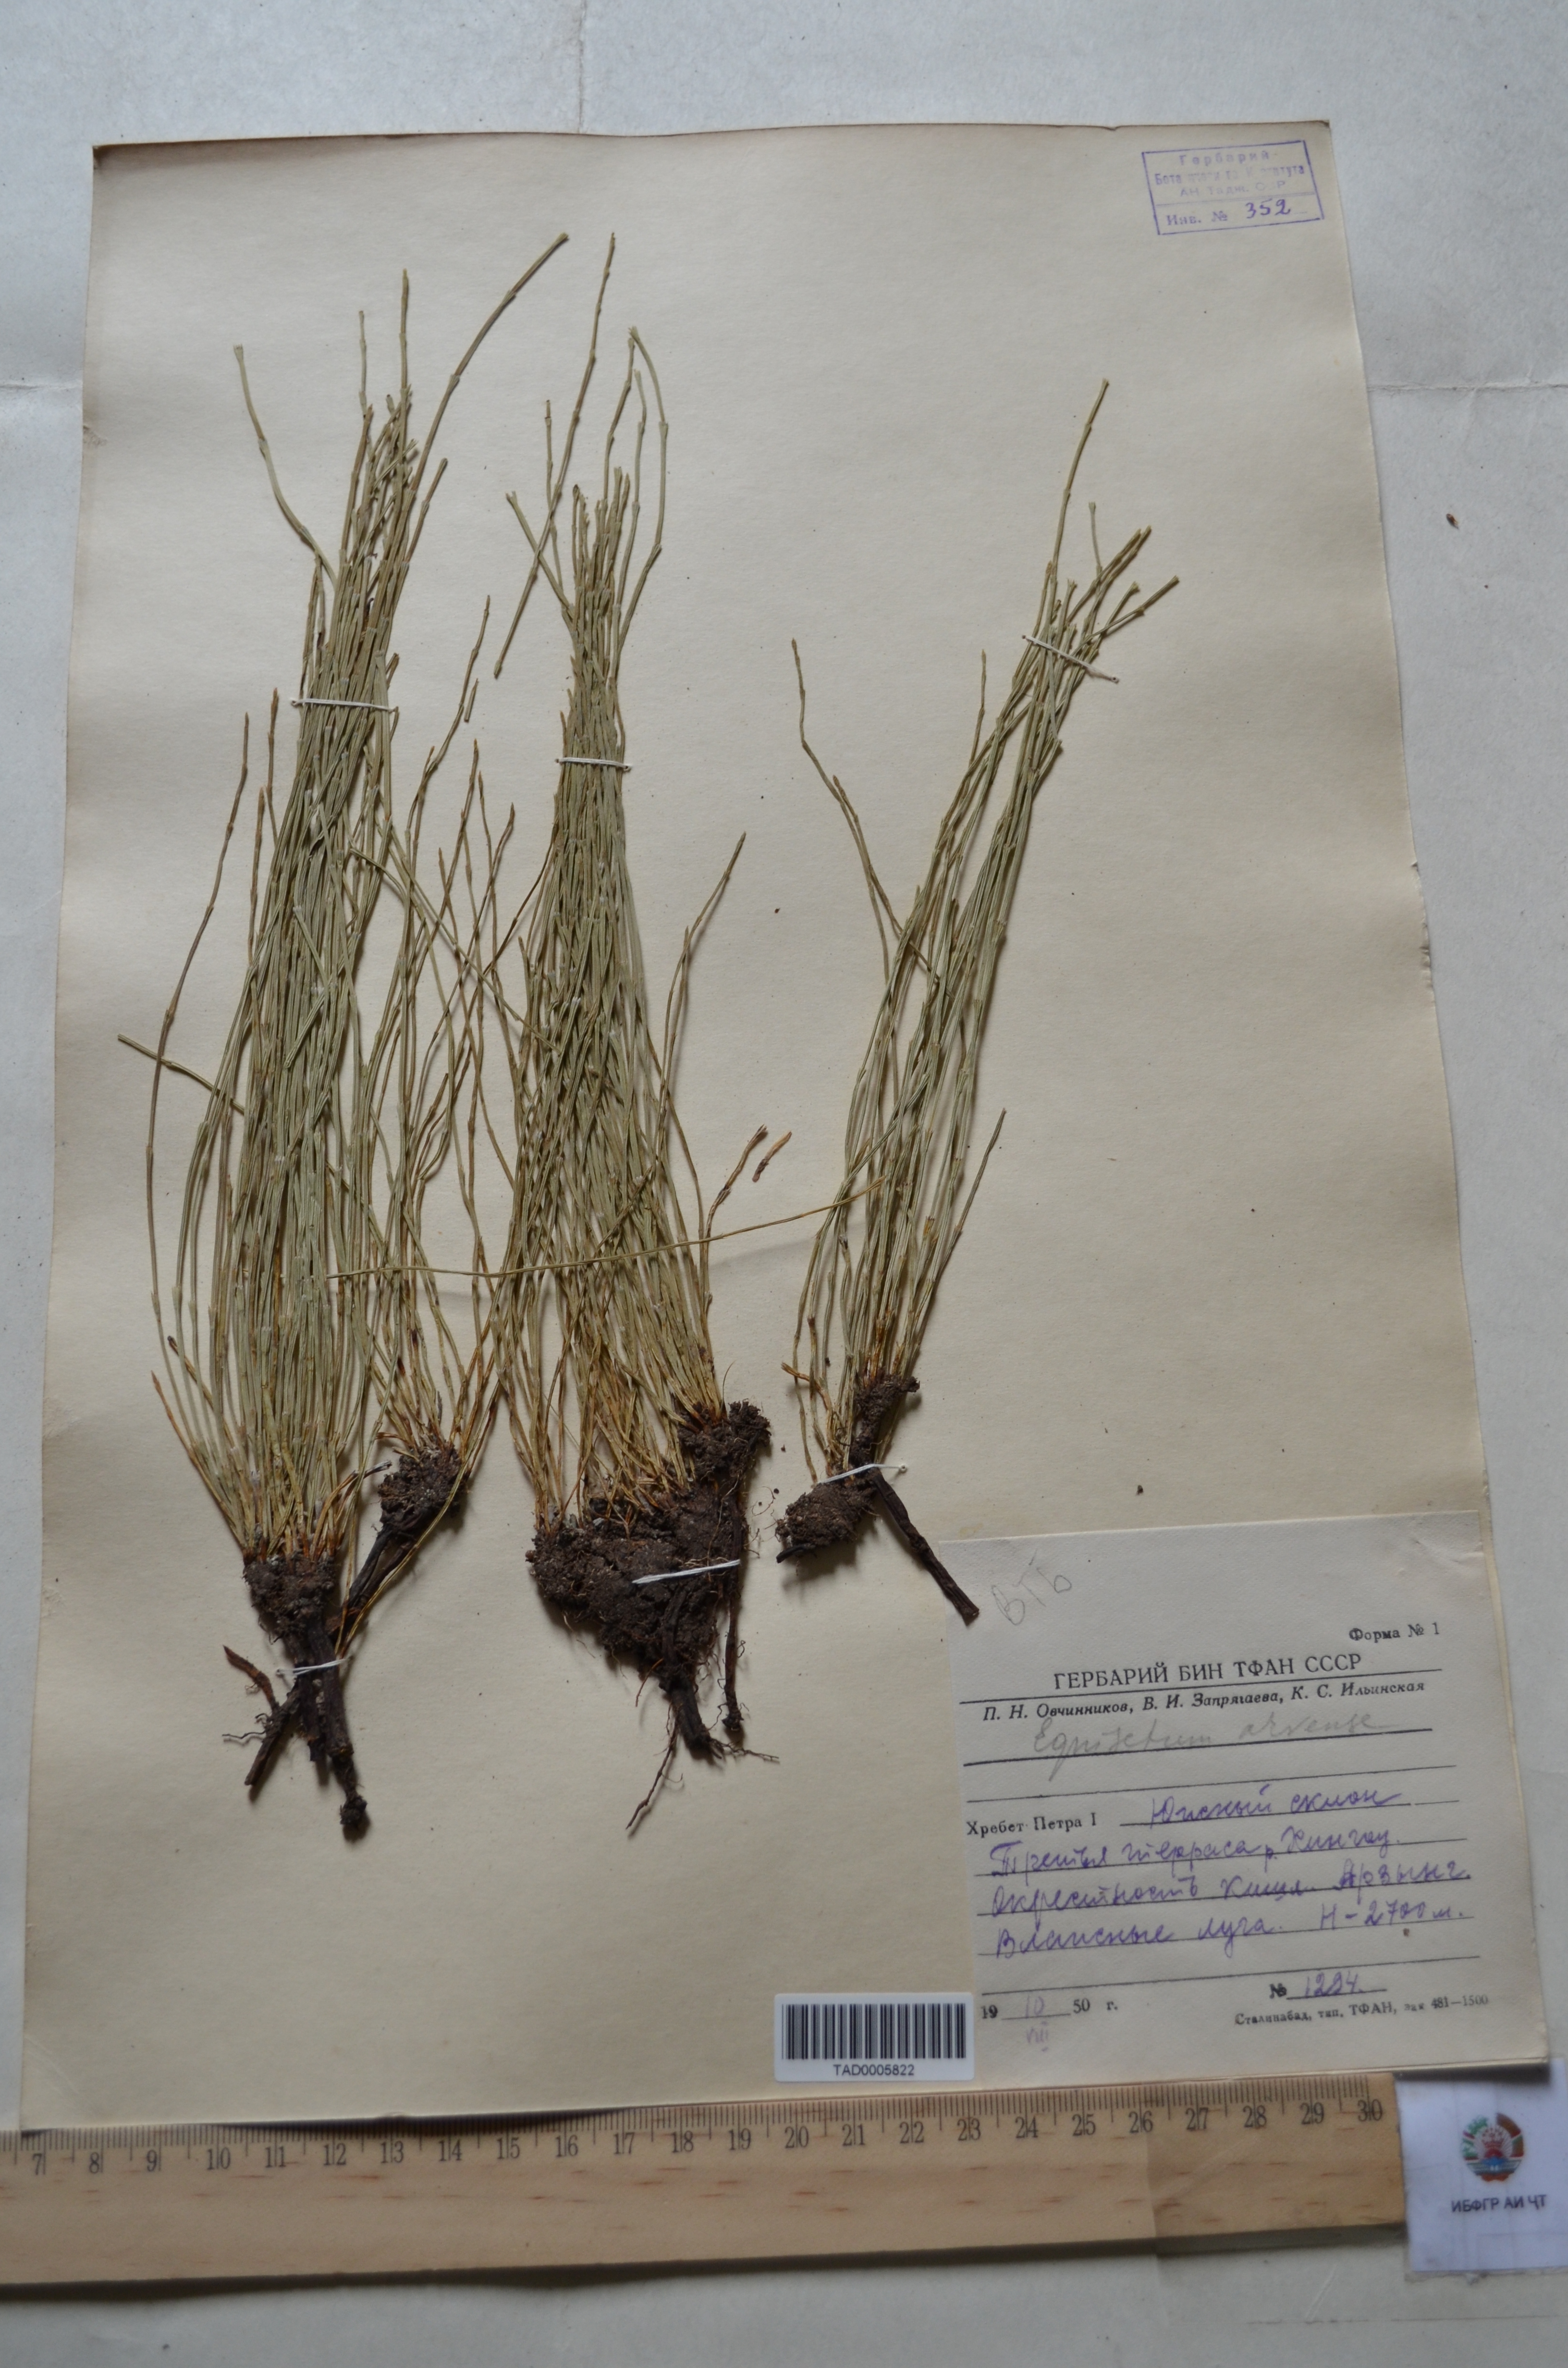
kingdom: Plantae
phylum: Tracheophyta
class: Polypodiopsida
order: Equisetales
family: Equisetaceae
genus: Equisetum
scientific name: Equisetum arvense
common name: Field horsetail
